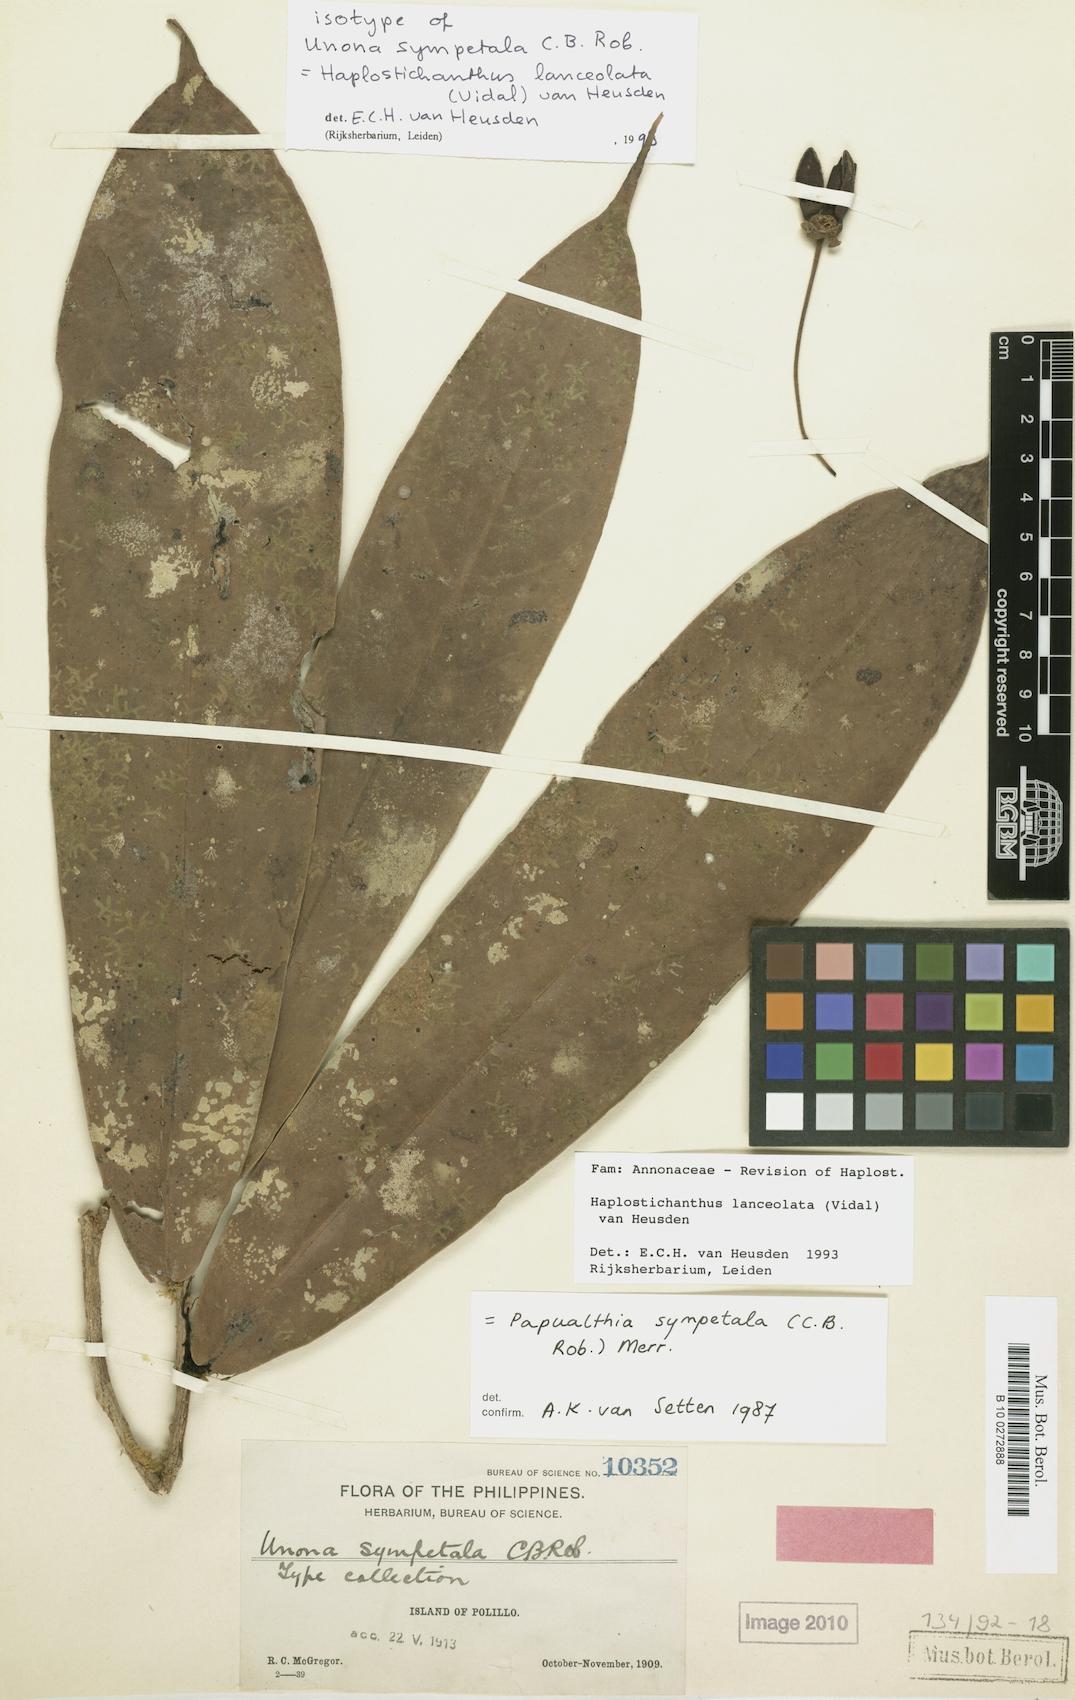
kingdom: Plantae
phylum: Tracheophyta
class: Magnoliopsida
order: Magnoliales
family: Annonaceae
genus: Haplostichanthus
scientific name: Haplostichanthus lanceolata
